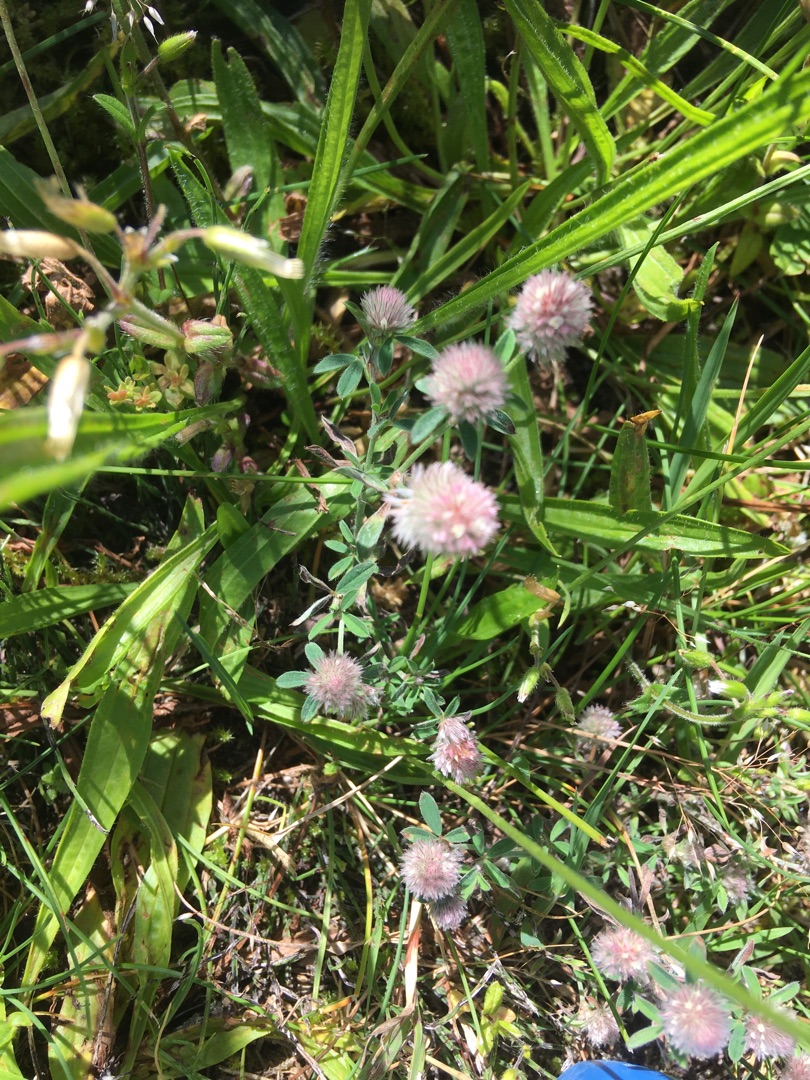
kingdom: Plantae
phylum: Tracheophyta
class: Magnoliopsida
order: Fabales
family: Fabaceae
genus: Trifolium
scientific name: Trifolium arvense
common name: Hare-kløver
